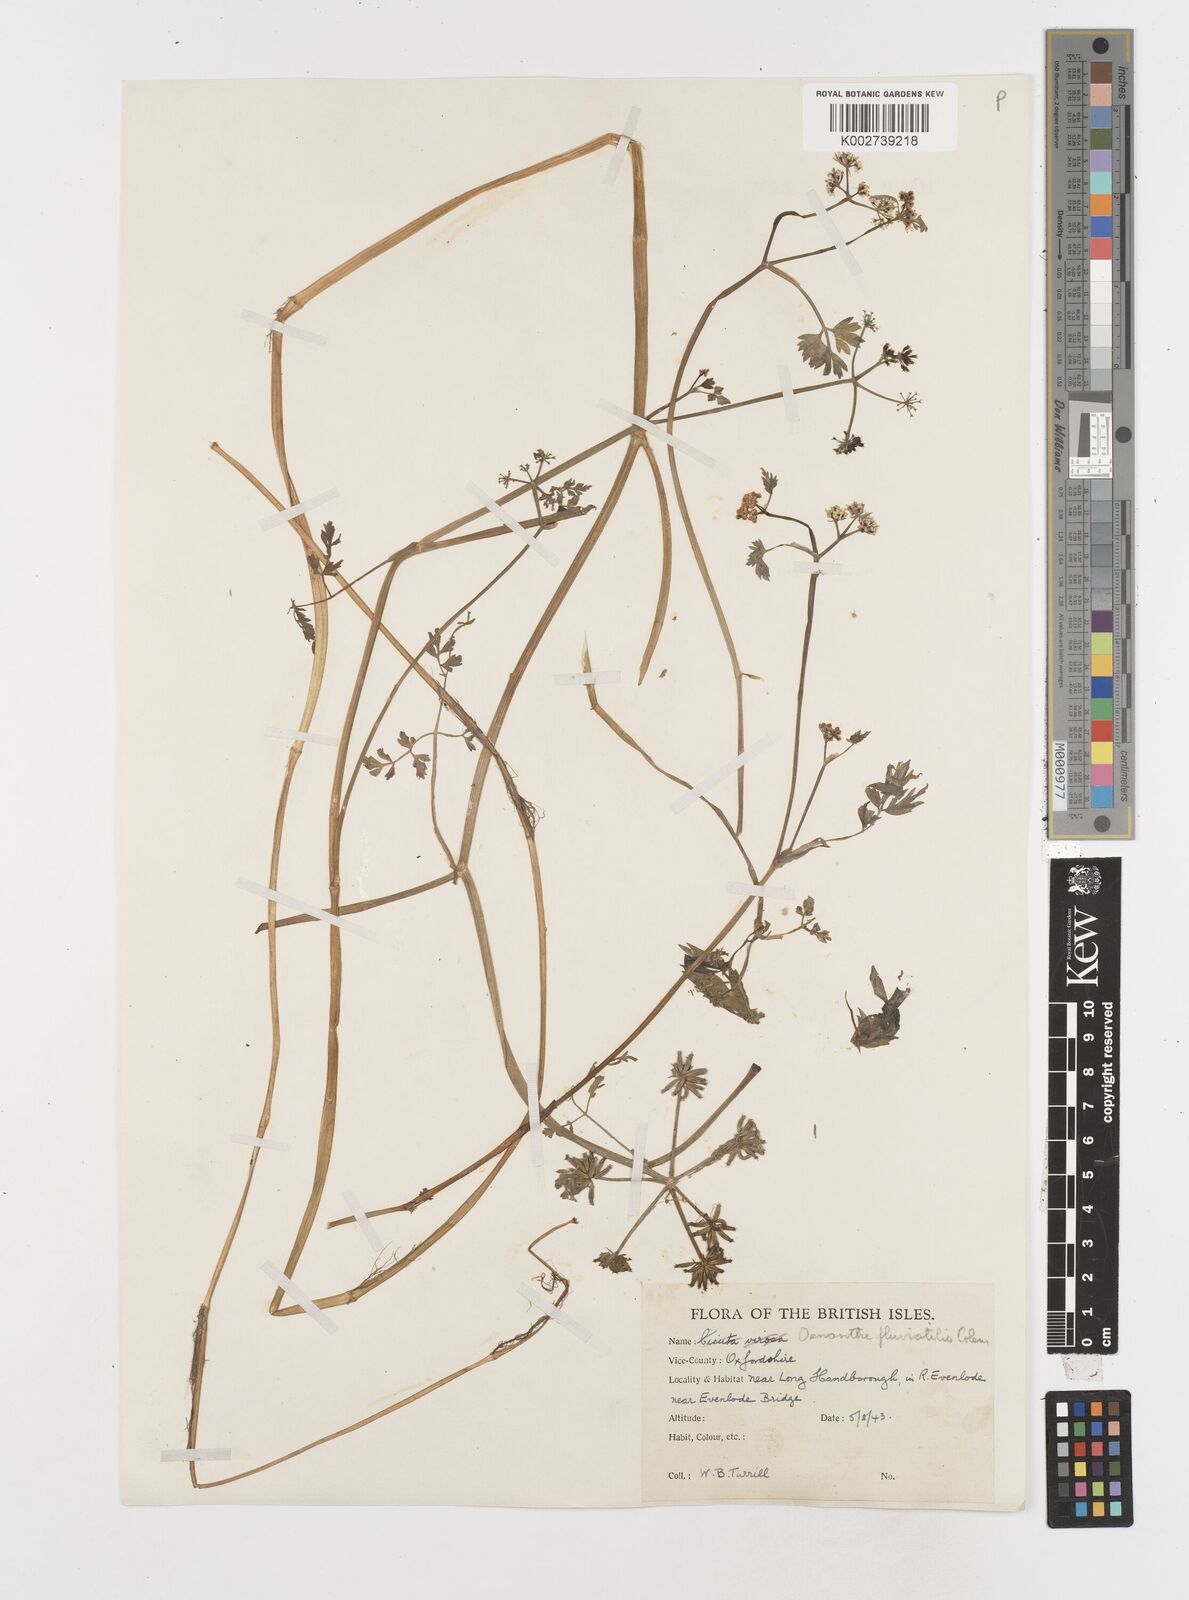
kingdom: Plantae
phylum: Tracheophyta
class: Magnoliopsida
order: Apiales
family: Apiaceae
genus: Oenanthe
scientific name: Oenanthe fluviatilis
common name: River water-dropwort
